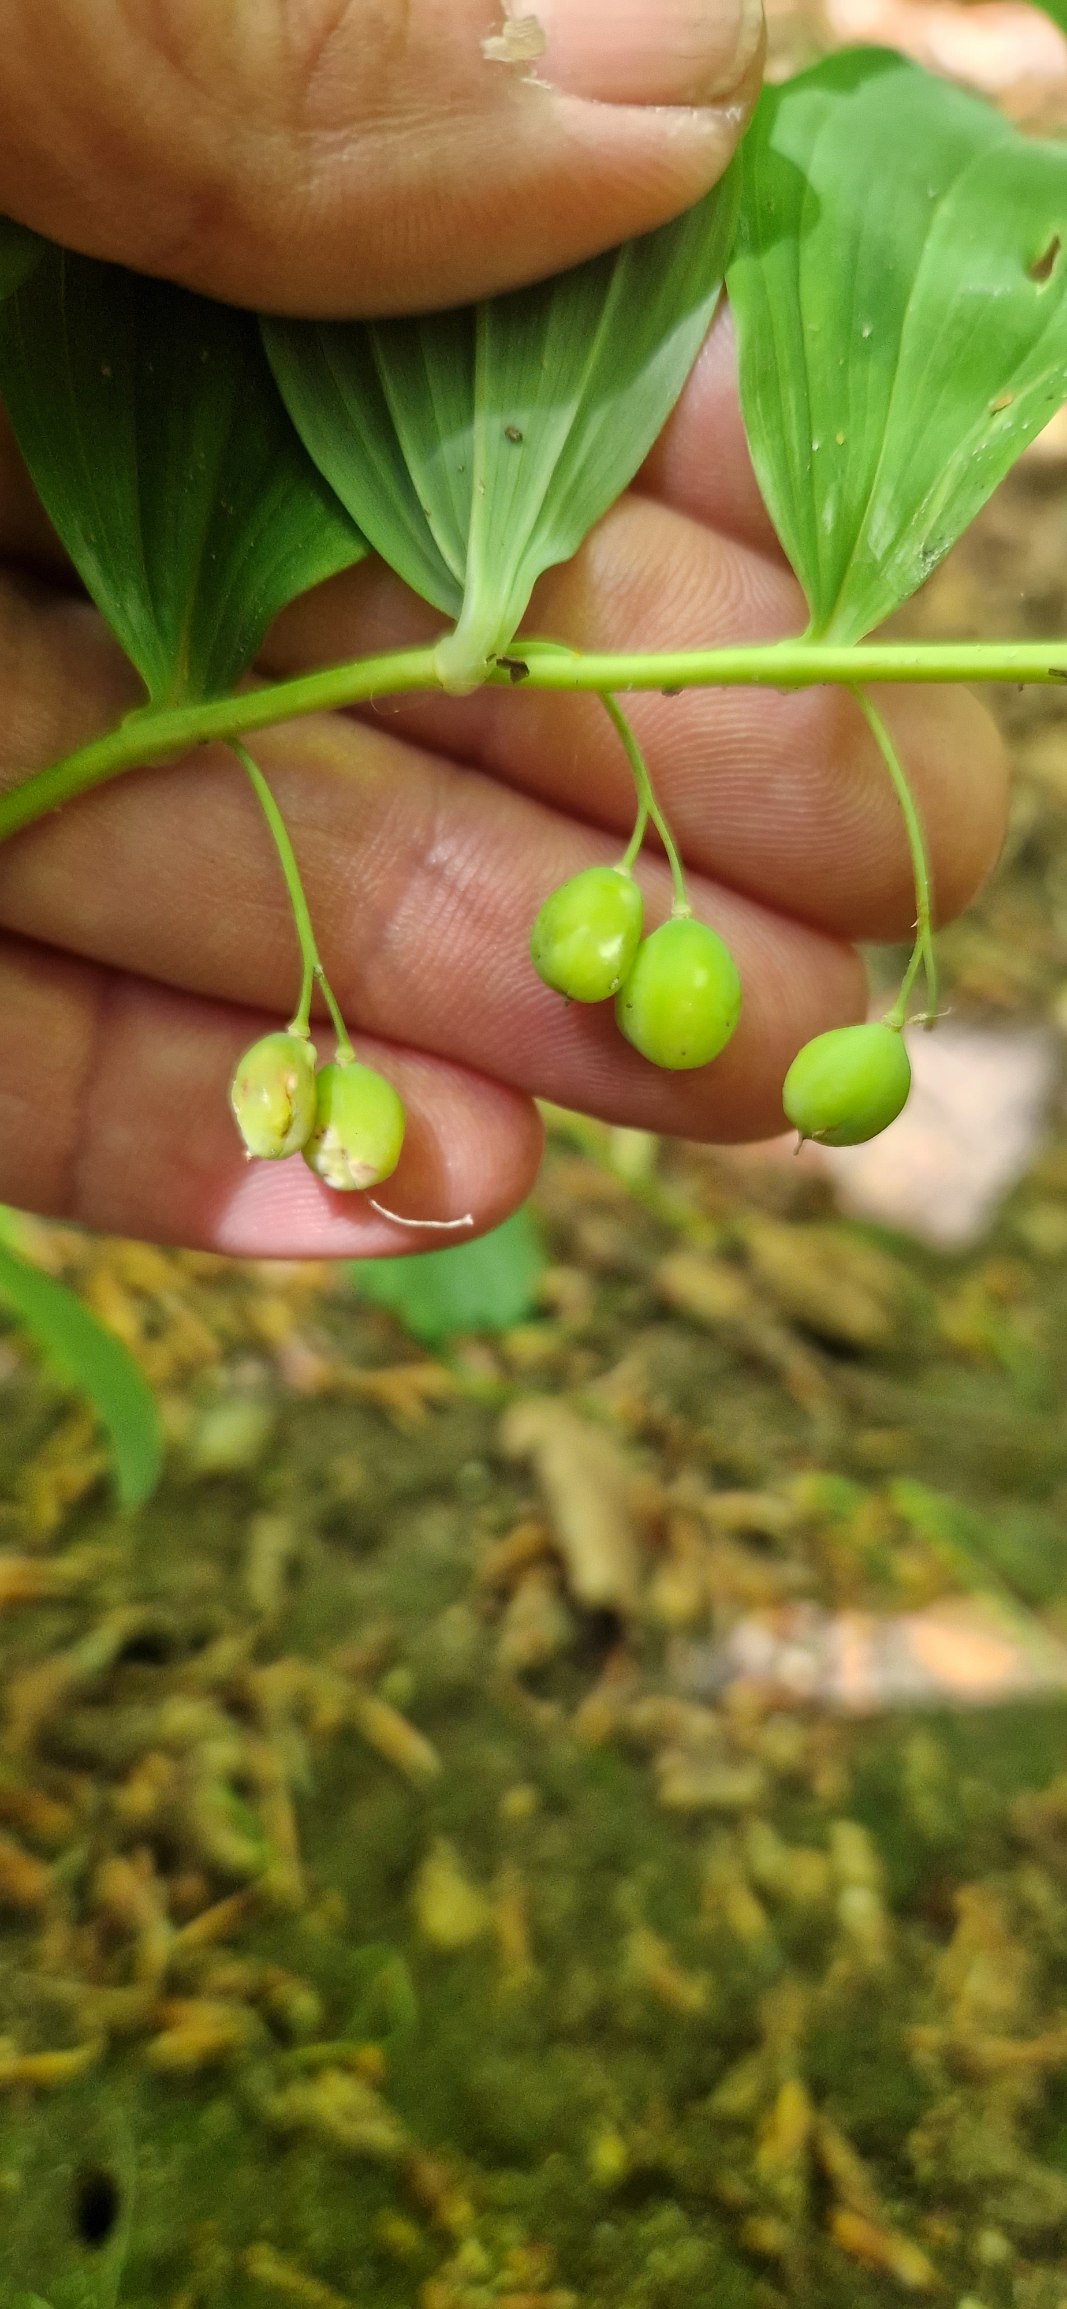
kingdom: Plantae
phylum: Tracheophyta
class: Liliopsida
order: Asparagales
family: Asparagaceae
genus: Polygonatum
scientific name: Polygonatum multiflorum
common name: Stor konval
